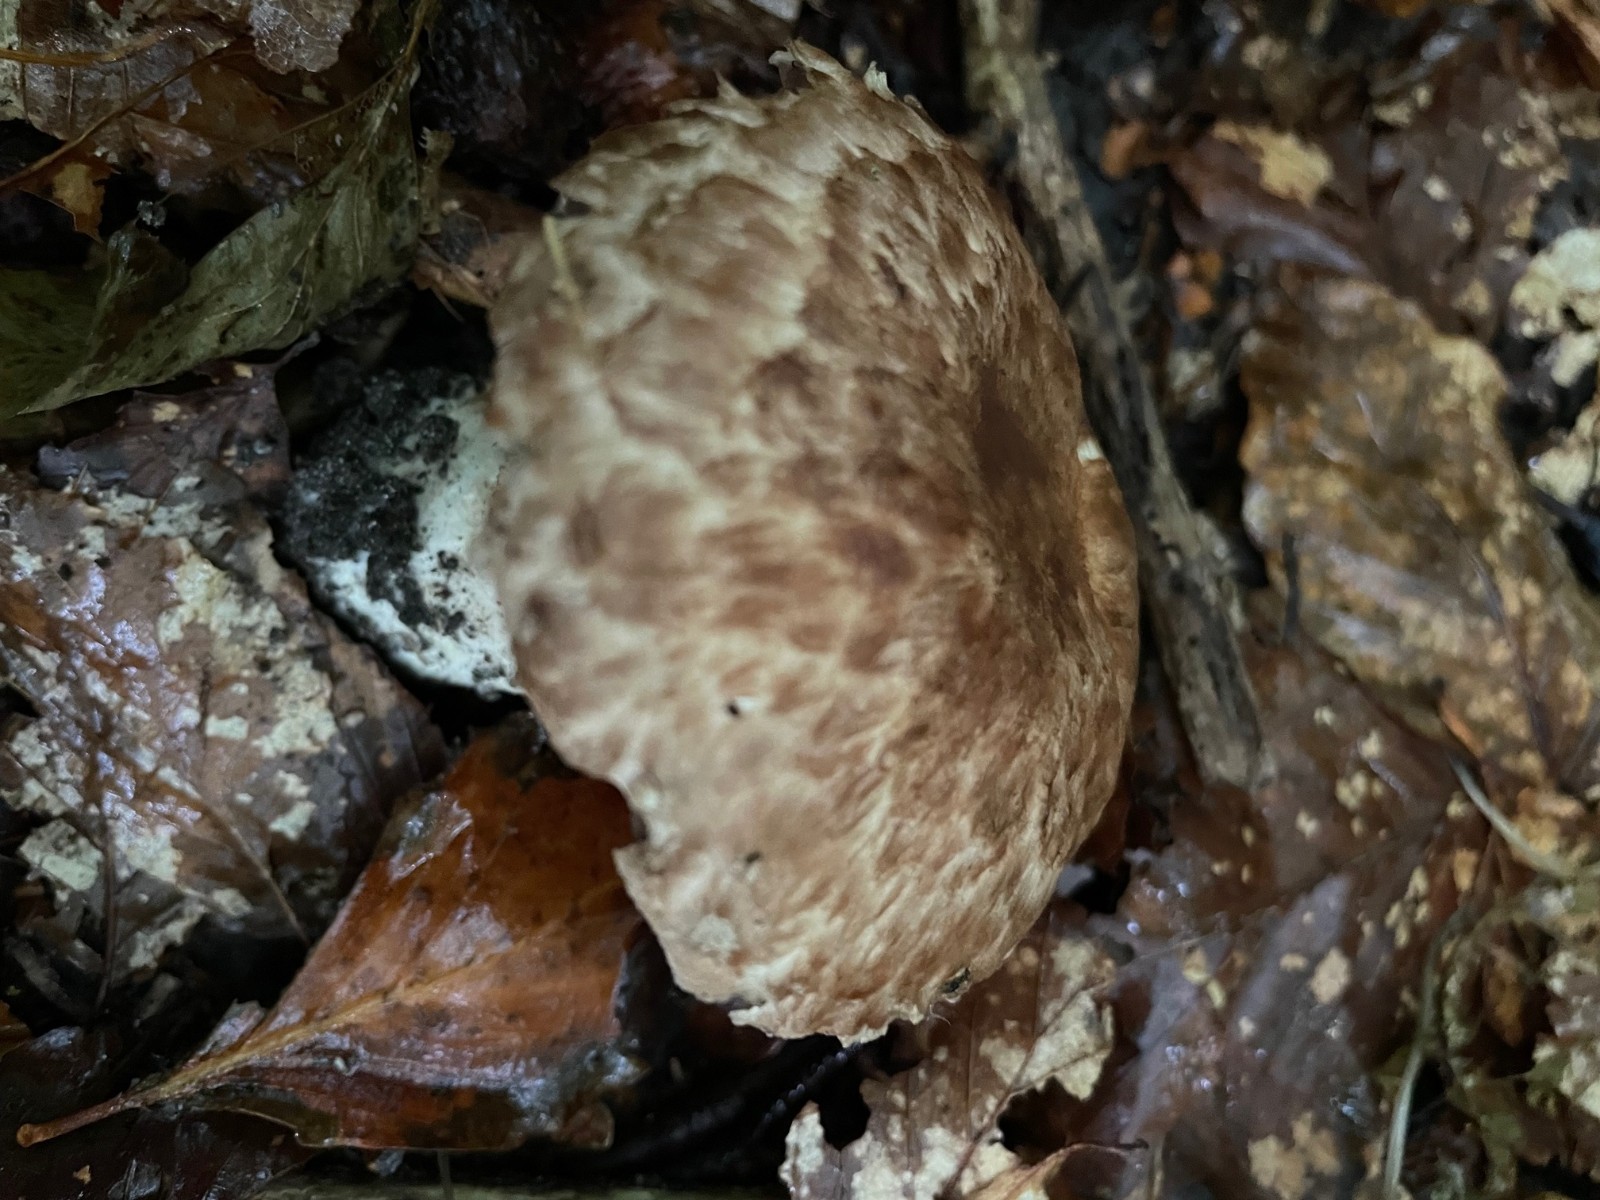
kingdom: Fungi
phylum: Basidiomycota
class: Agaricomycetes
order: Agaricales
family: Agaricaceae
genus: Agaricus
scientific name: Agaricus
